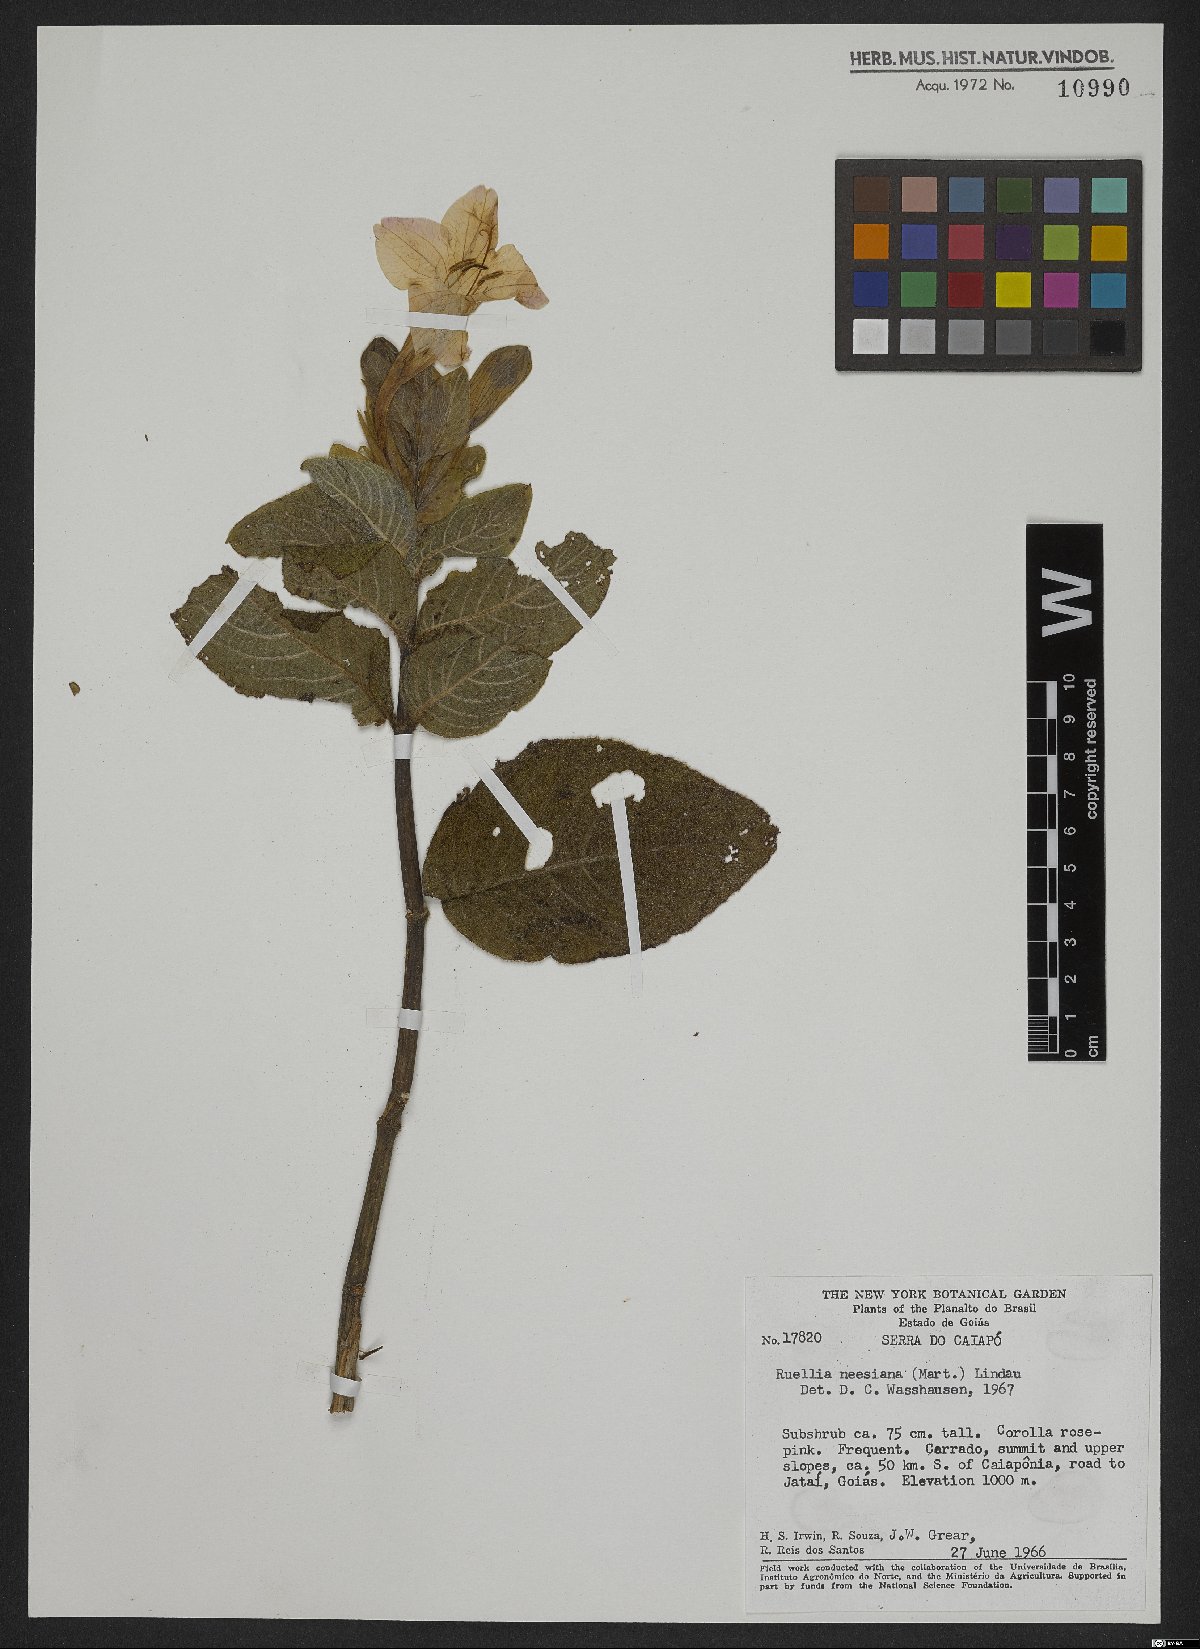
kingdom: Plantae
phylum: Tracheophyta
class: Magnoliopsida
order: Lamiales
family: Acanthaceae
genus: Mackaya
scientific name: Mackaya neesiana
